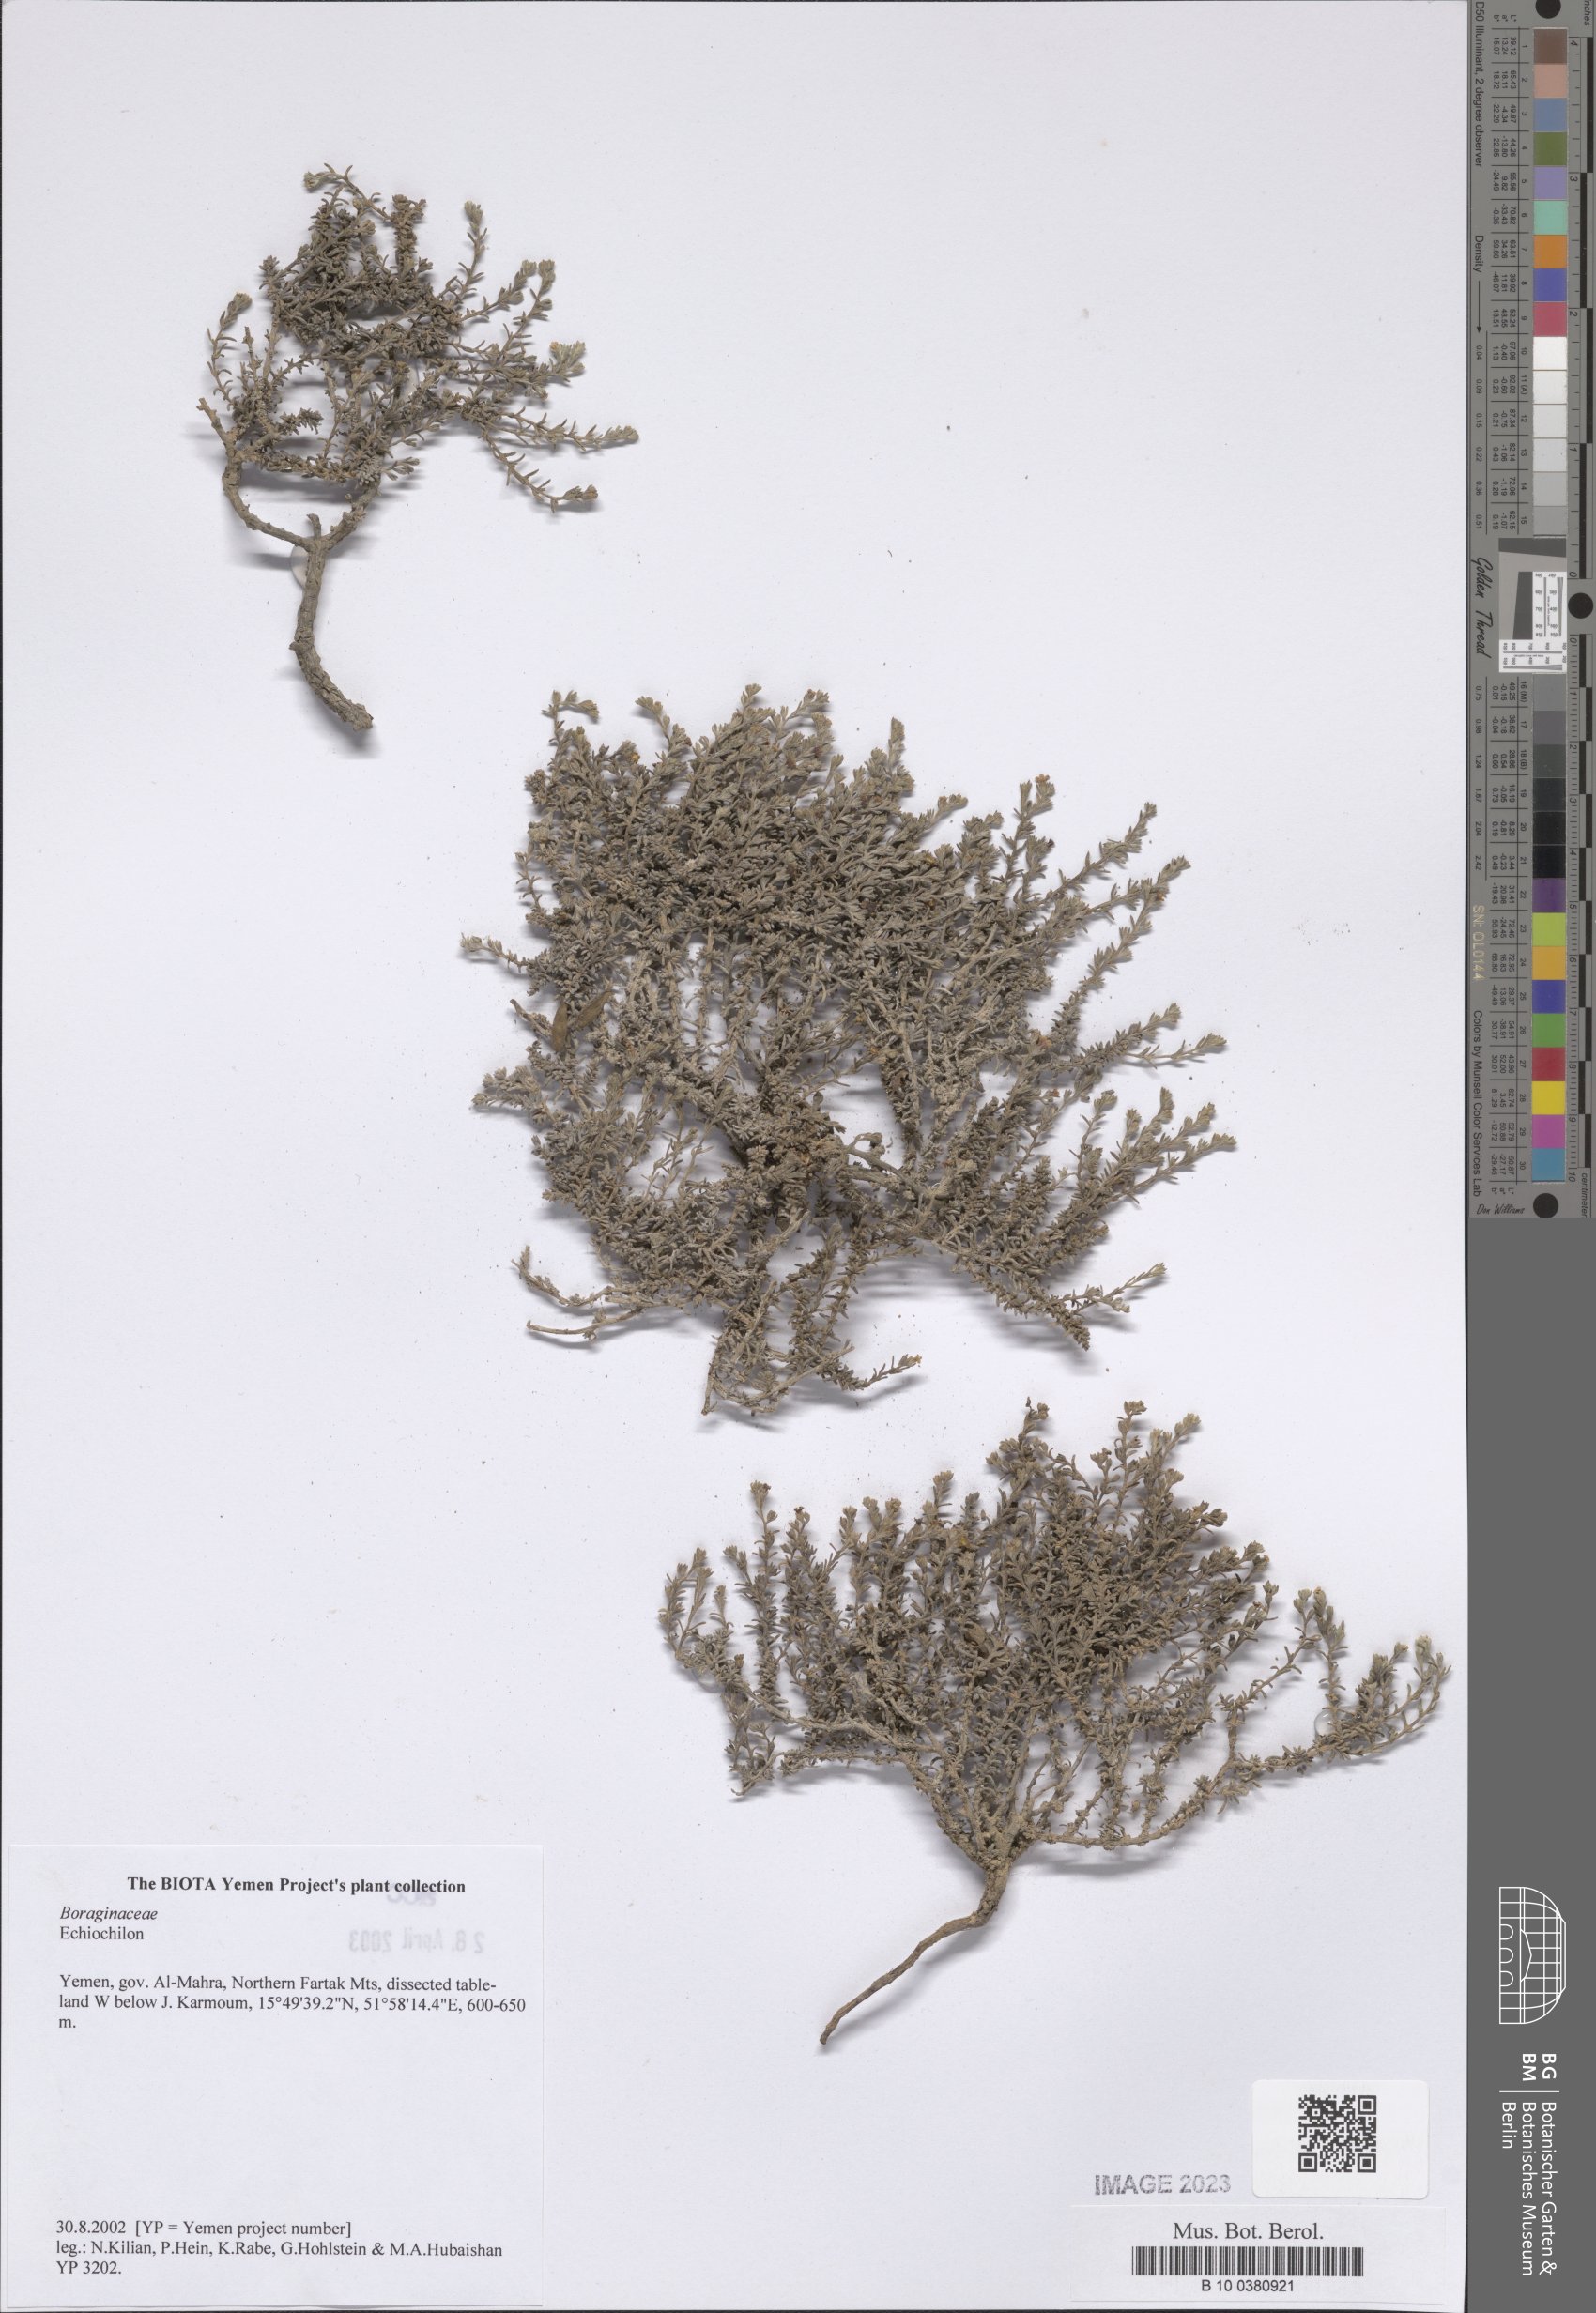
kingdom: Plantae
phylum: Tracheophyta
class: Magnoliopsida
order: Boraginales
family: Boraginaceae
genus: Echiochilon
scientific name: Echiochilon
